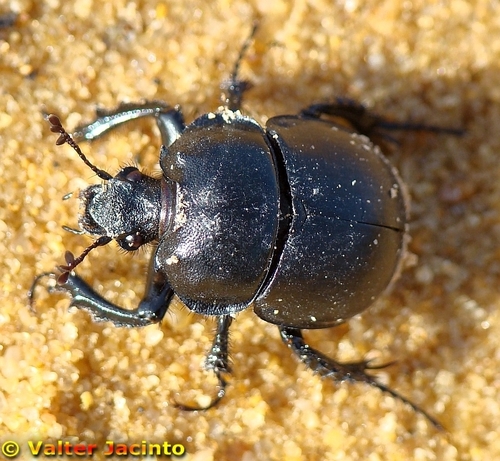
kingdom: Animalia
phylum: Arthropoda
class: Insecta
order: Coleoptera
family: Geotrupidae
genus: Chelotrupes
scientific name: Chelotrupes momus
